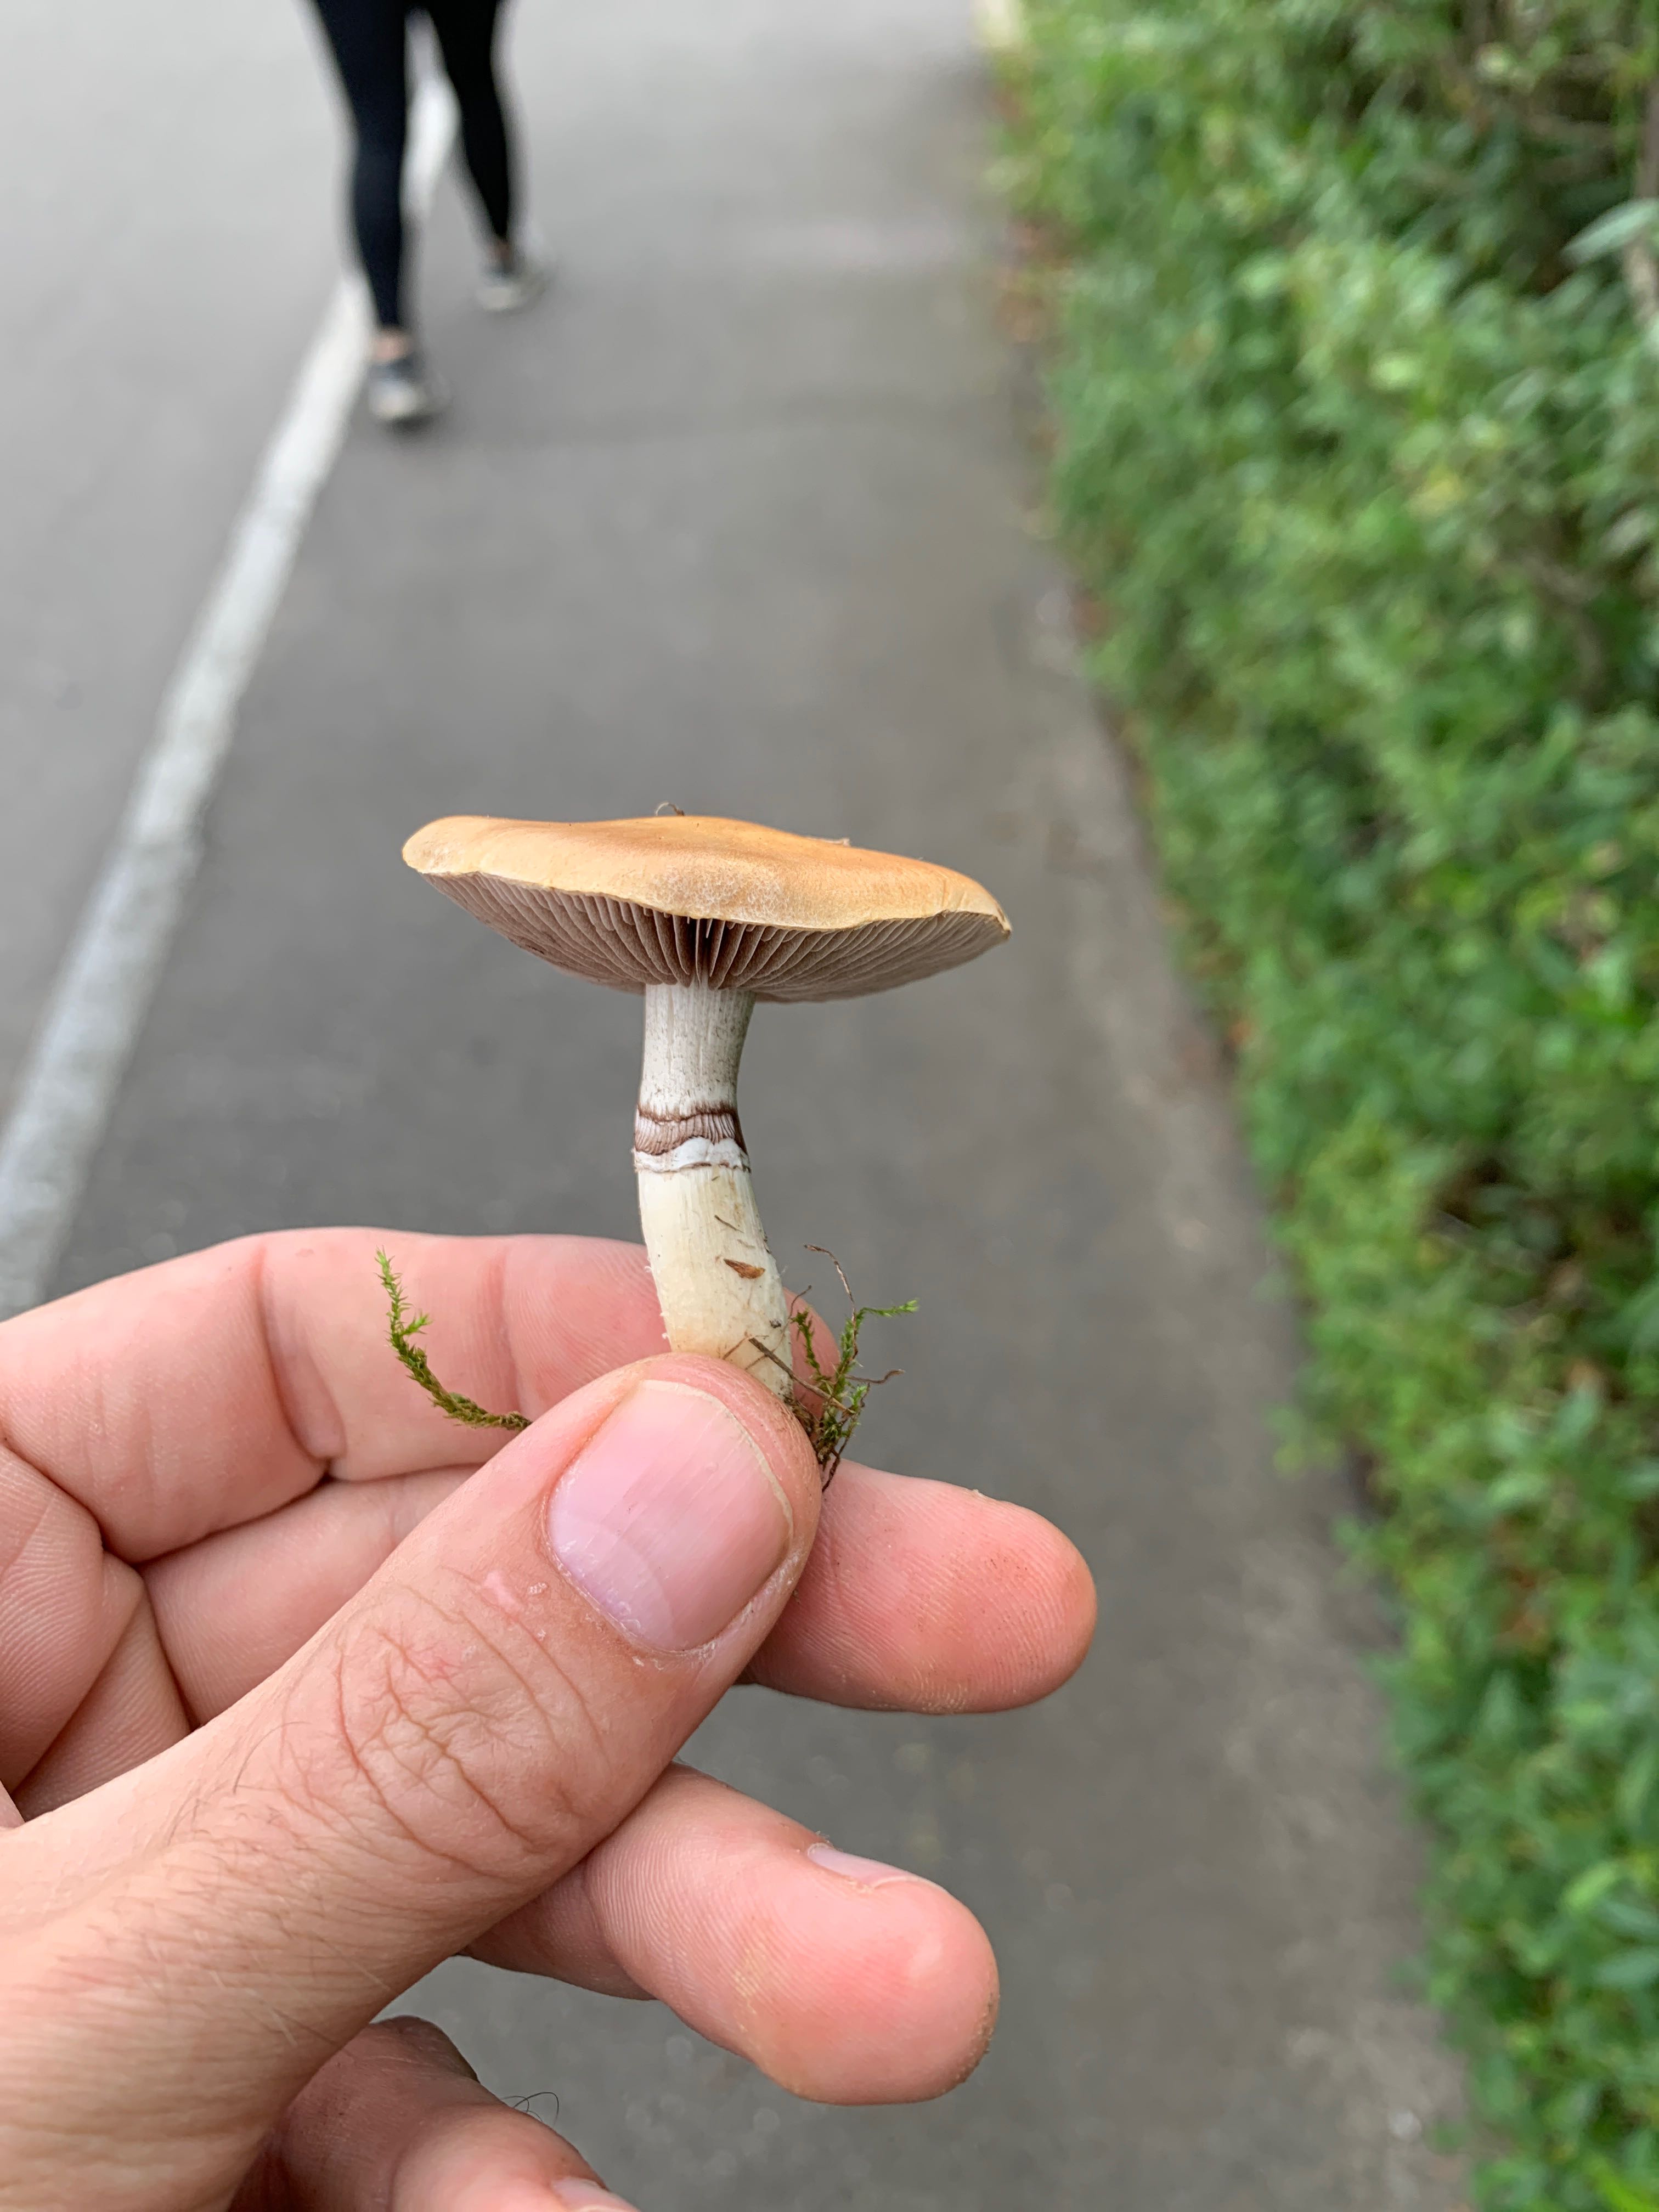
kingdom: Fungi
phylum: Basidiomycota
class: Agaricomycetes
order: Agaricales
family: Hymenogastraceae
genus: Psilocybe
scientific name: Psilocybe coronilla
